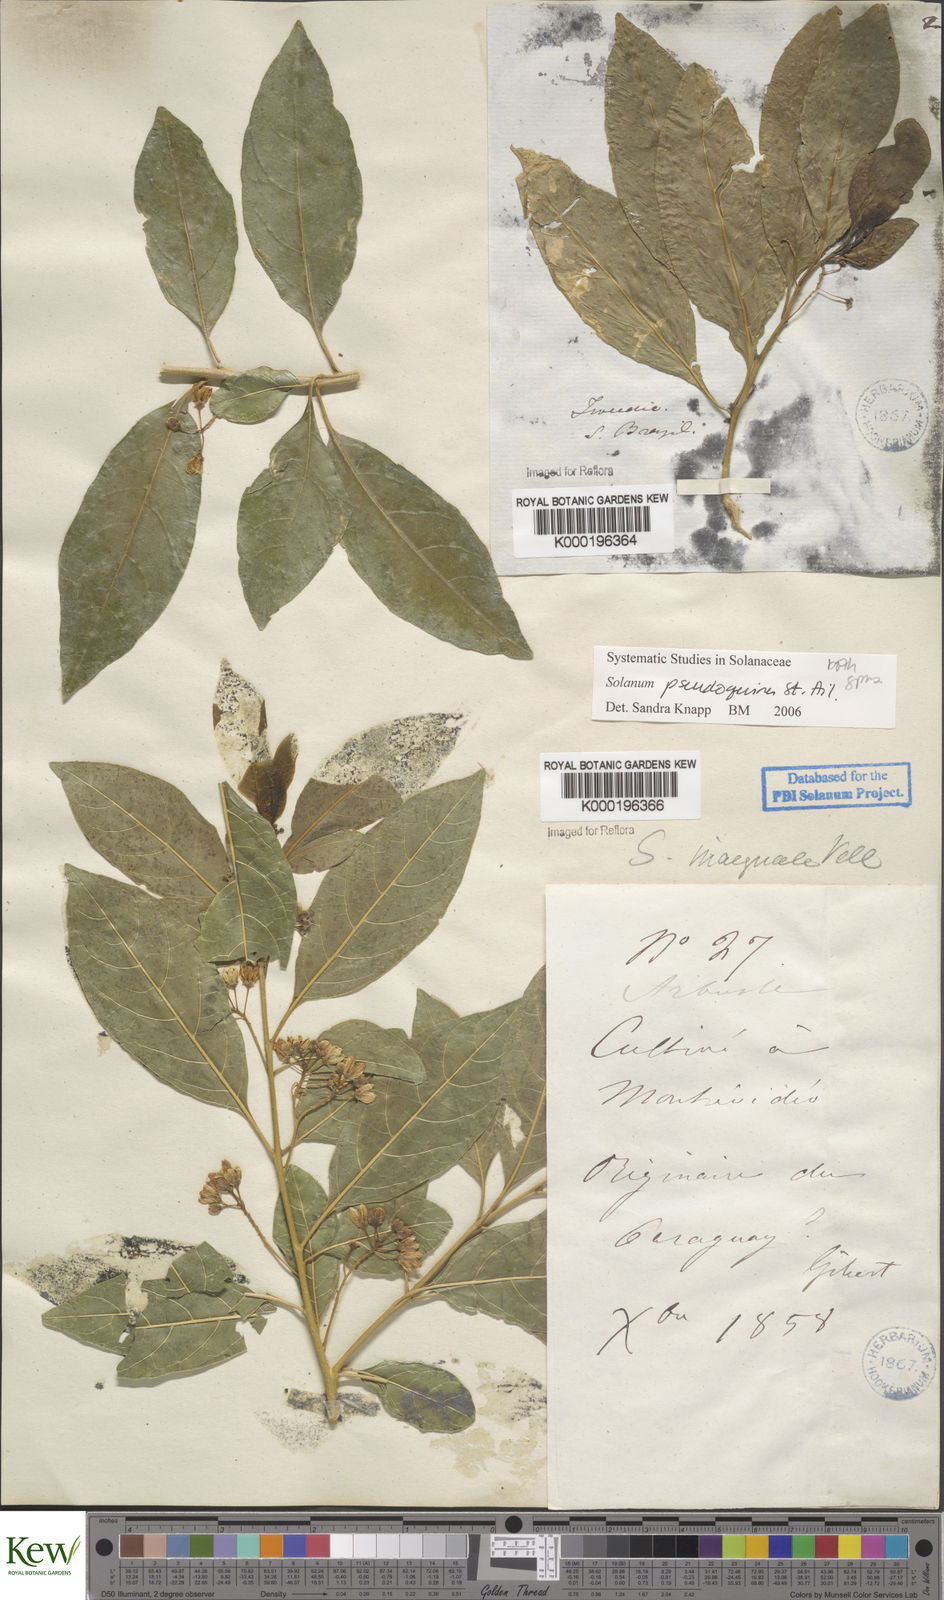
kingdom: Plantae
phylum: Tracheophyta
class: Magnoliopsida
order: Solanales
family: Solanaceae
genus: Solanum
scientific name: Solanum pseudoquina
